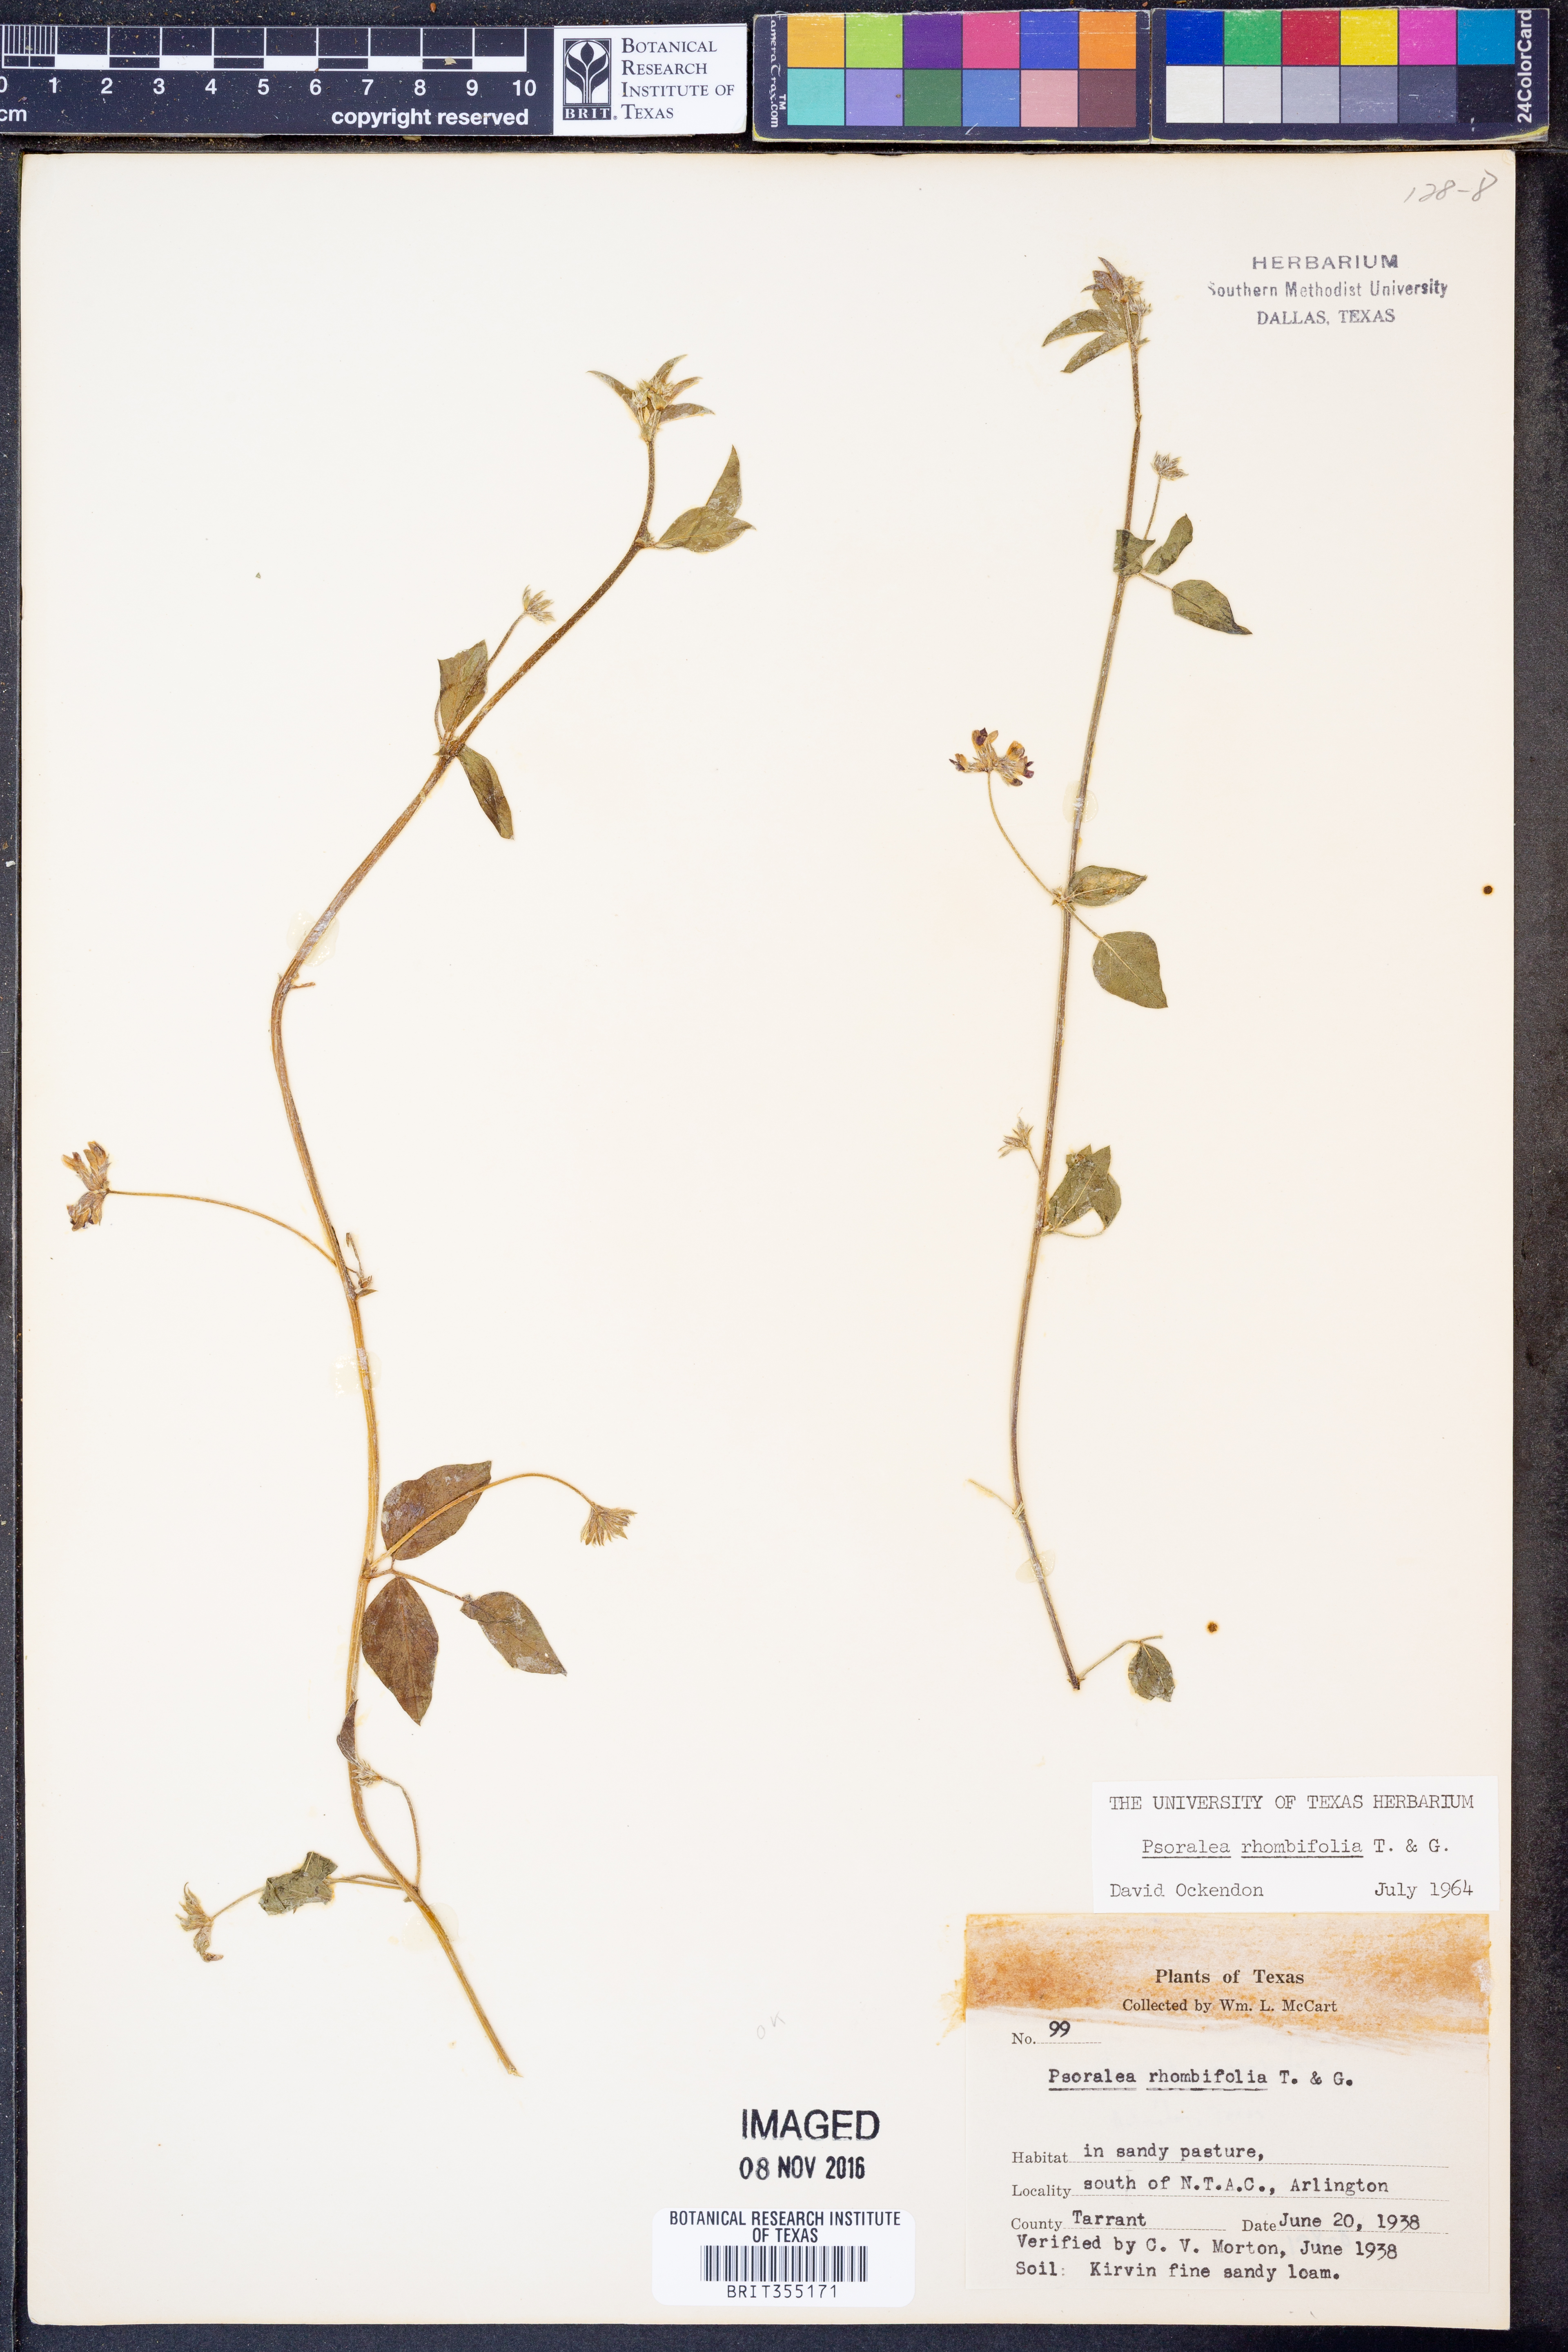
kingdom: Plantae
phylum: Tracheophyta
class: Magnoliopsida
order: Fabales
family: Fabaceae
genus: Pediomelum
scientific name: Pediomelum rhombifolium
